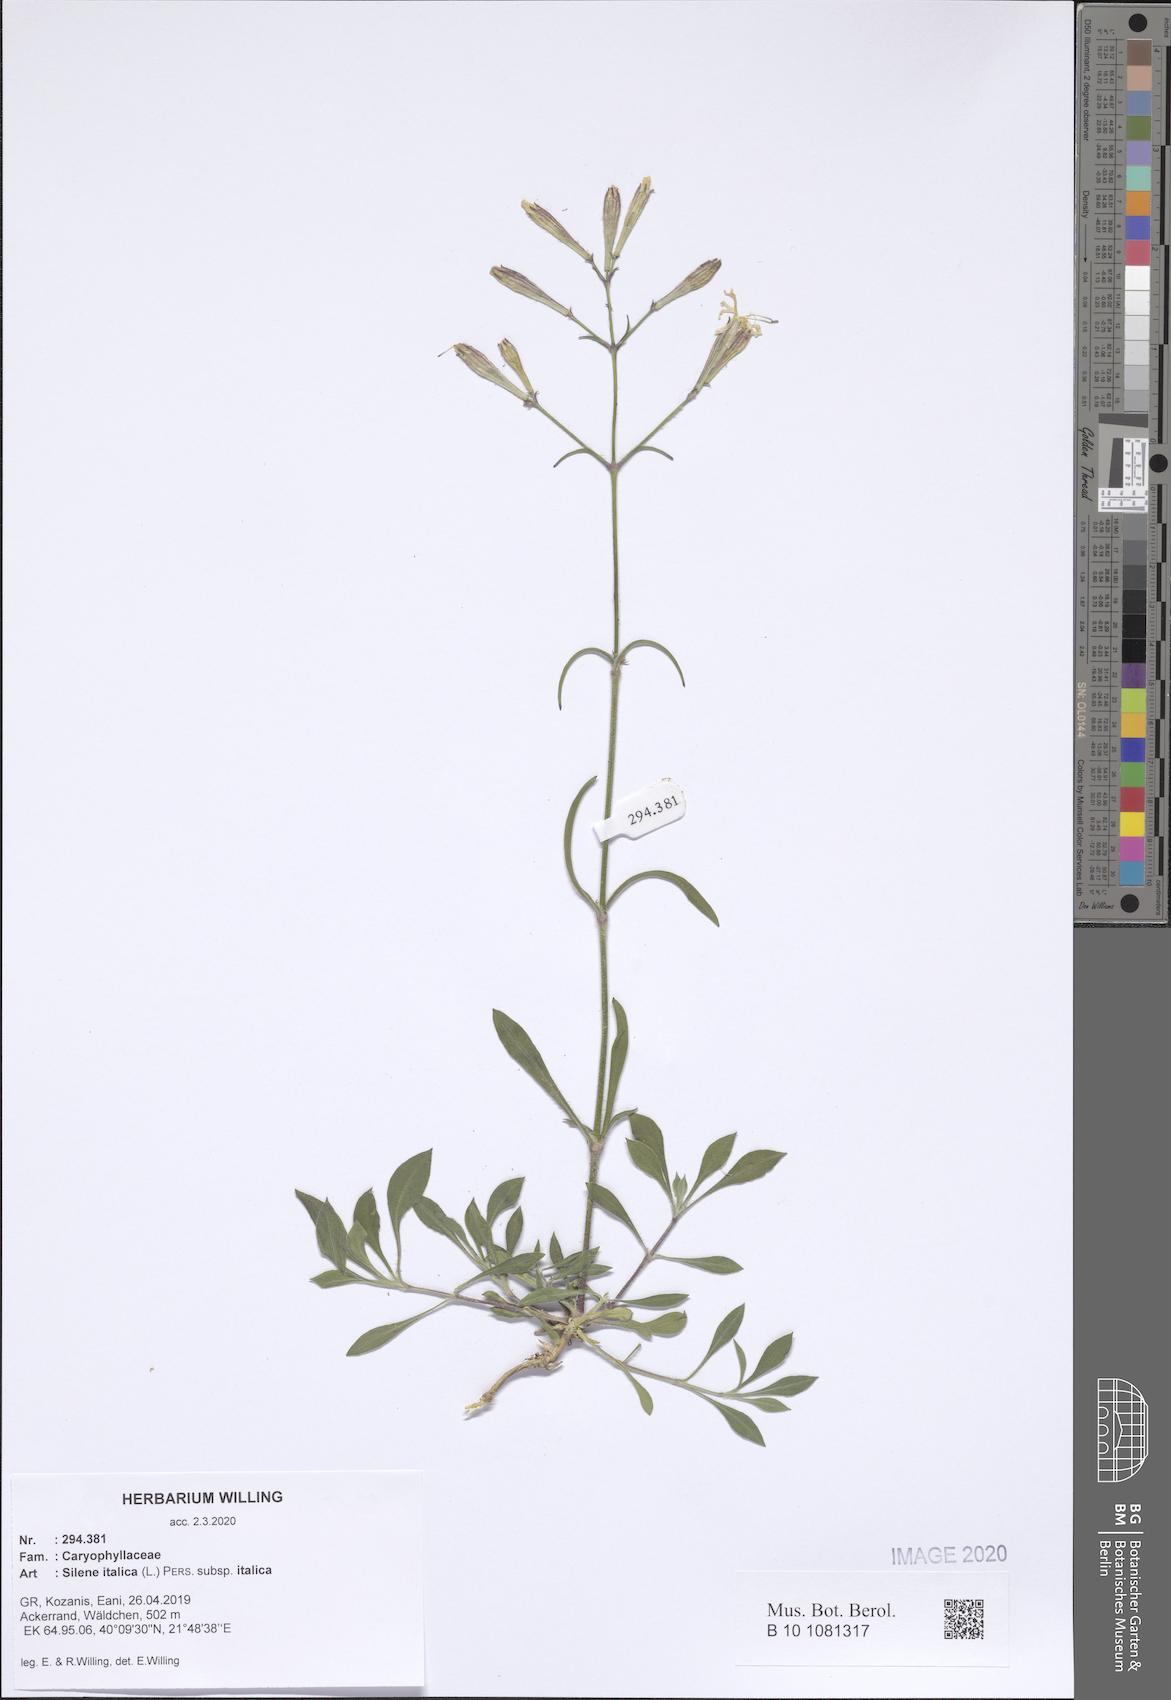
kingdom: Plantae
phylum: Tracheophyta
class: Magnoliopsida
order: Caryophyllales
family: Caryophyllaceae
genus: Silene
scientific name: Silene italica
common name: Italian catchfly
